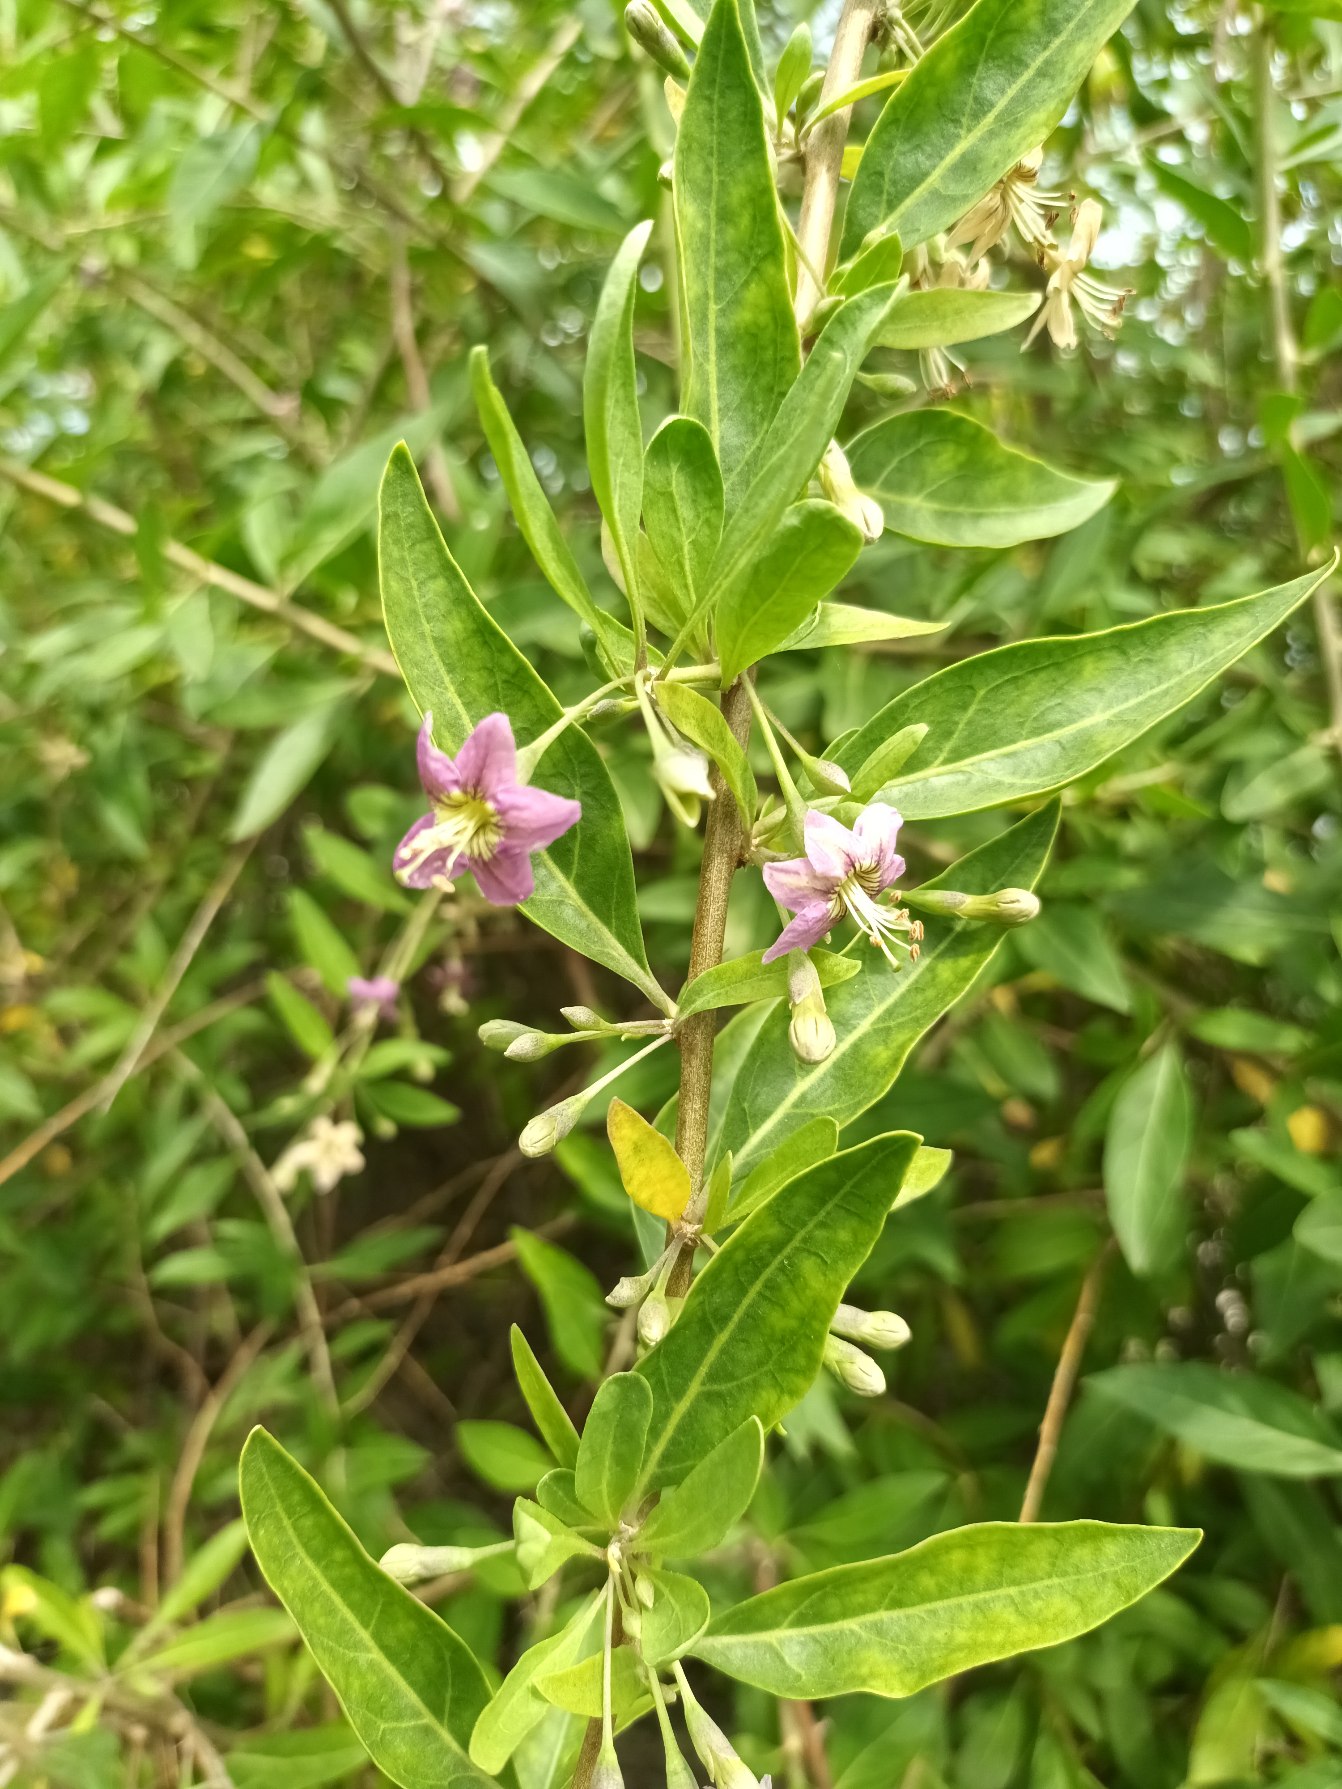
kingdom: Plantae
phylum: Tracheophyta
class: Magnoliopsida
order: Solanales
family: Solanaceae
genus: Lycium
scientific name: Lycium barbarum
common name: Bukketorn
